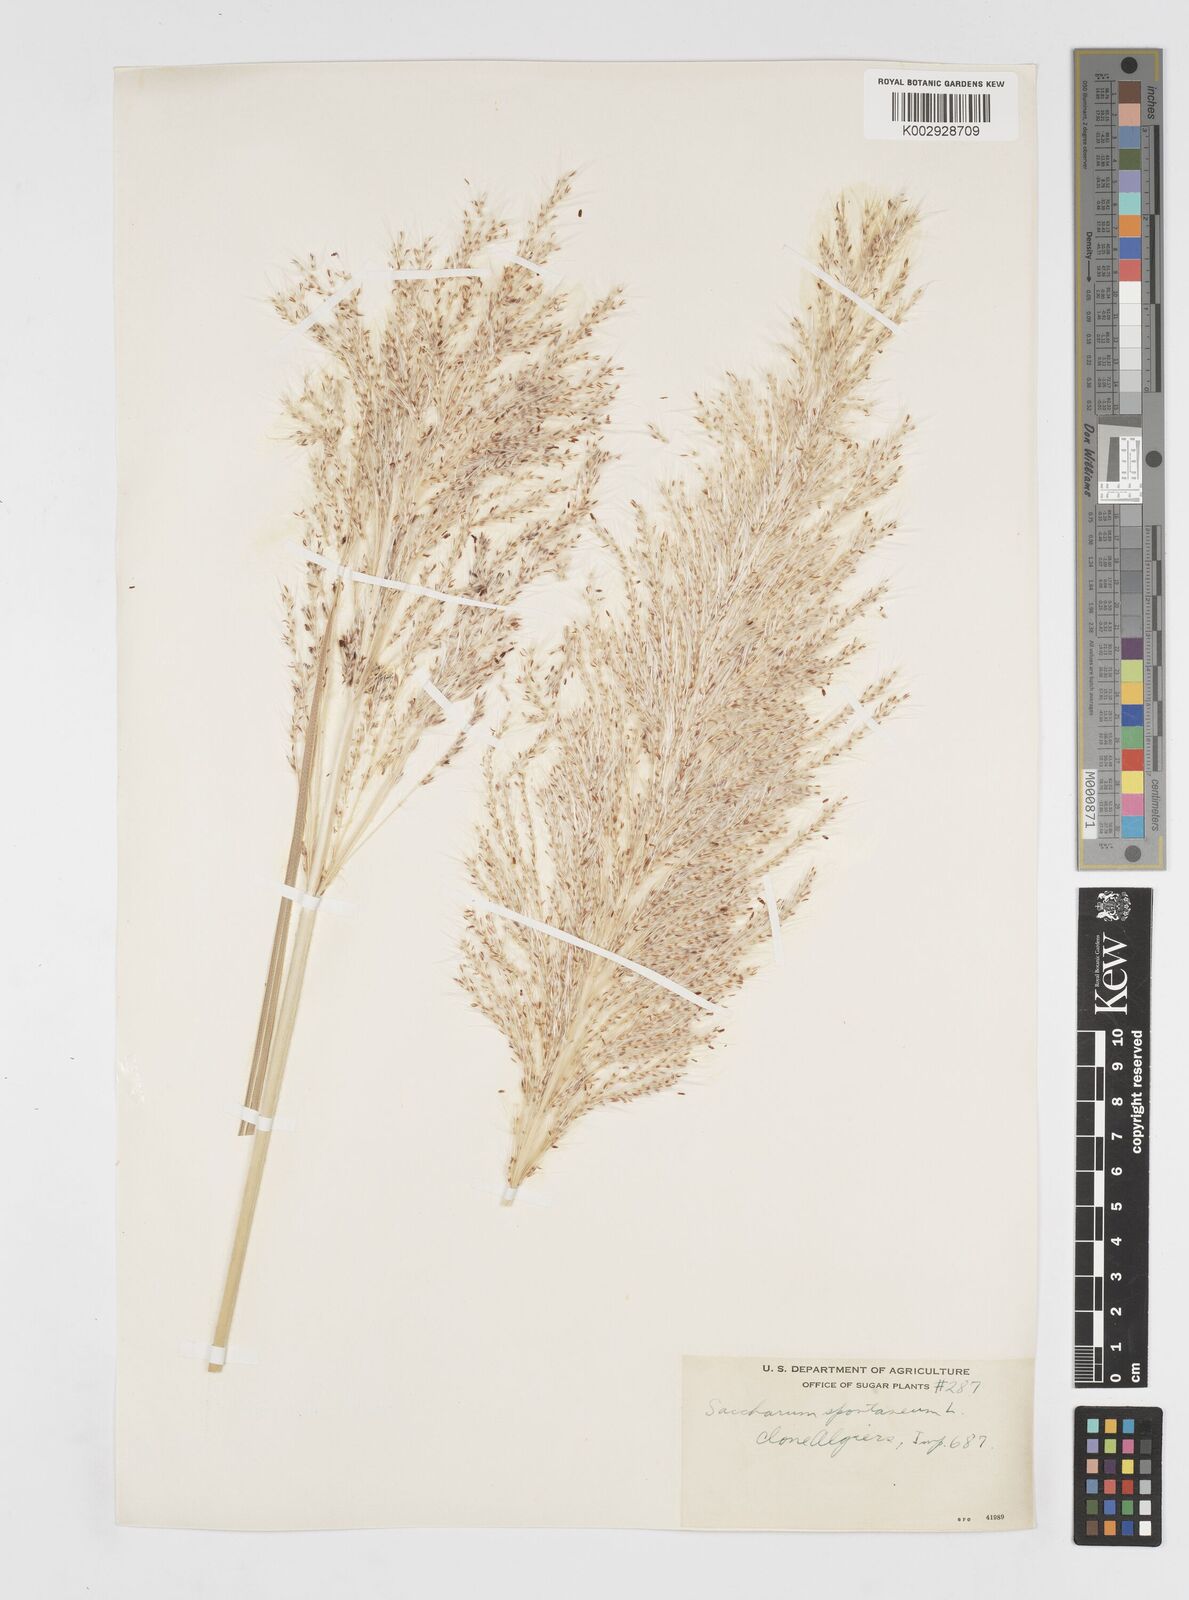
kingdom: Plantae
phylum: Tracheophyta
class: Liliopsida
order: Poales
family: Poaceae
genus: Saccharum
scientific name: Saccharum spontaneum
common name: Wild sugarcane
